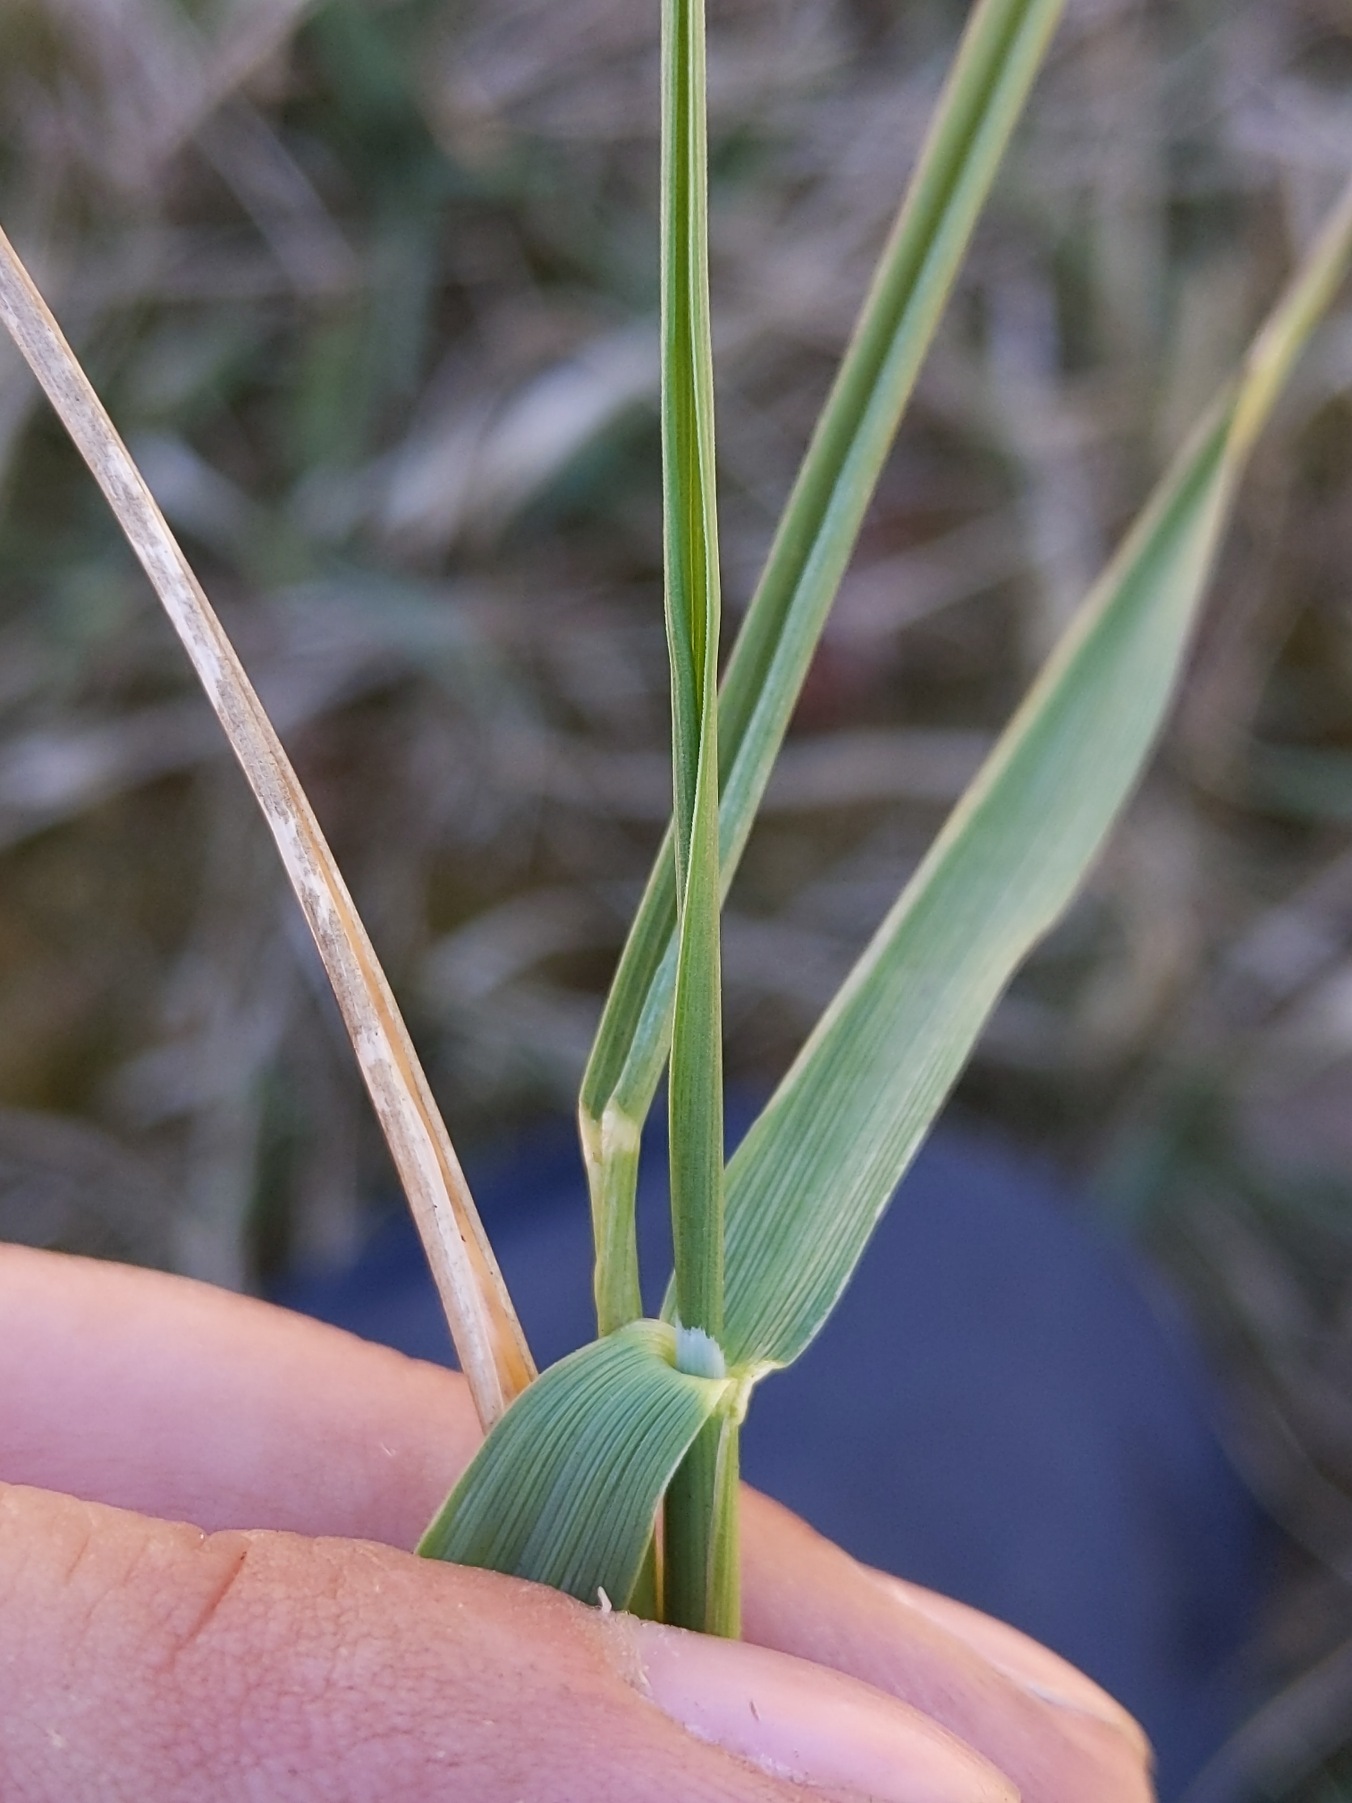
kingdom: Plantae
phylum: Tracheophyta
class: Liliopsida
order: Poales
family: Poaceae
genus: Calamagrostis
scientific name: Calamagrostis epigejos
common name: Bjerg-rørhvene
